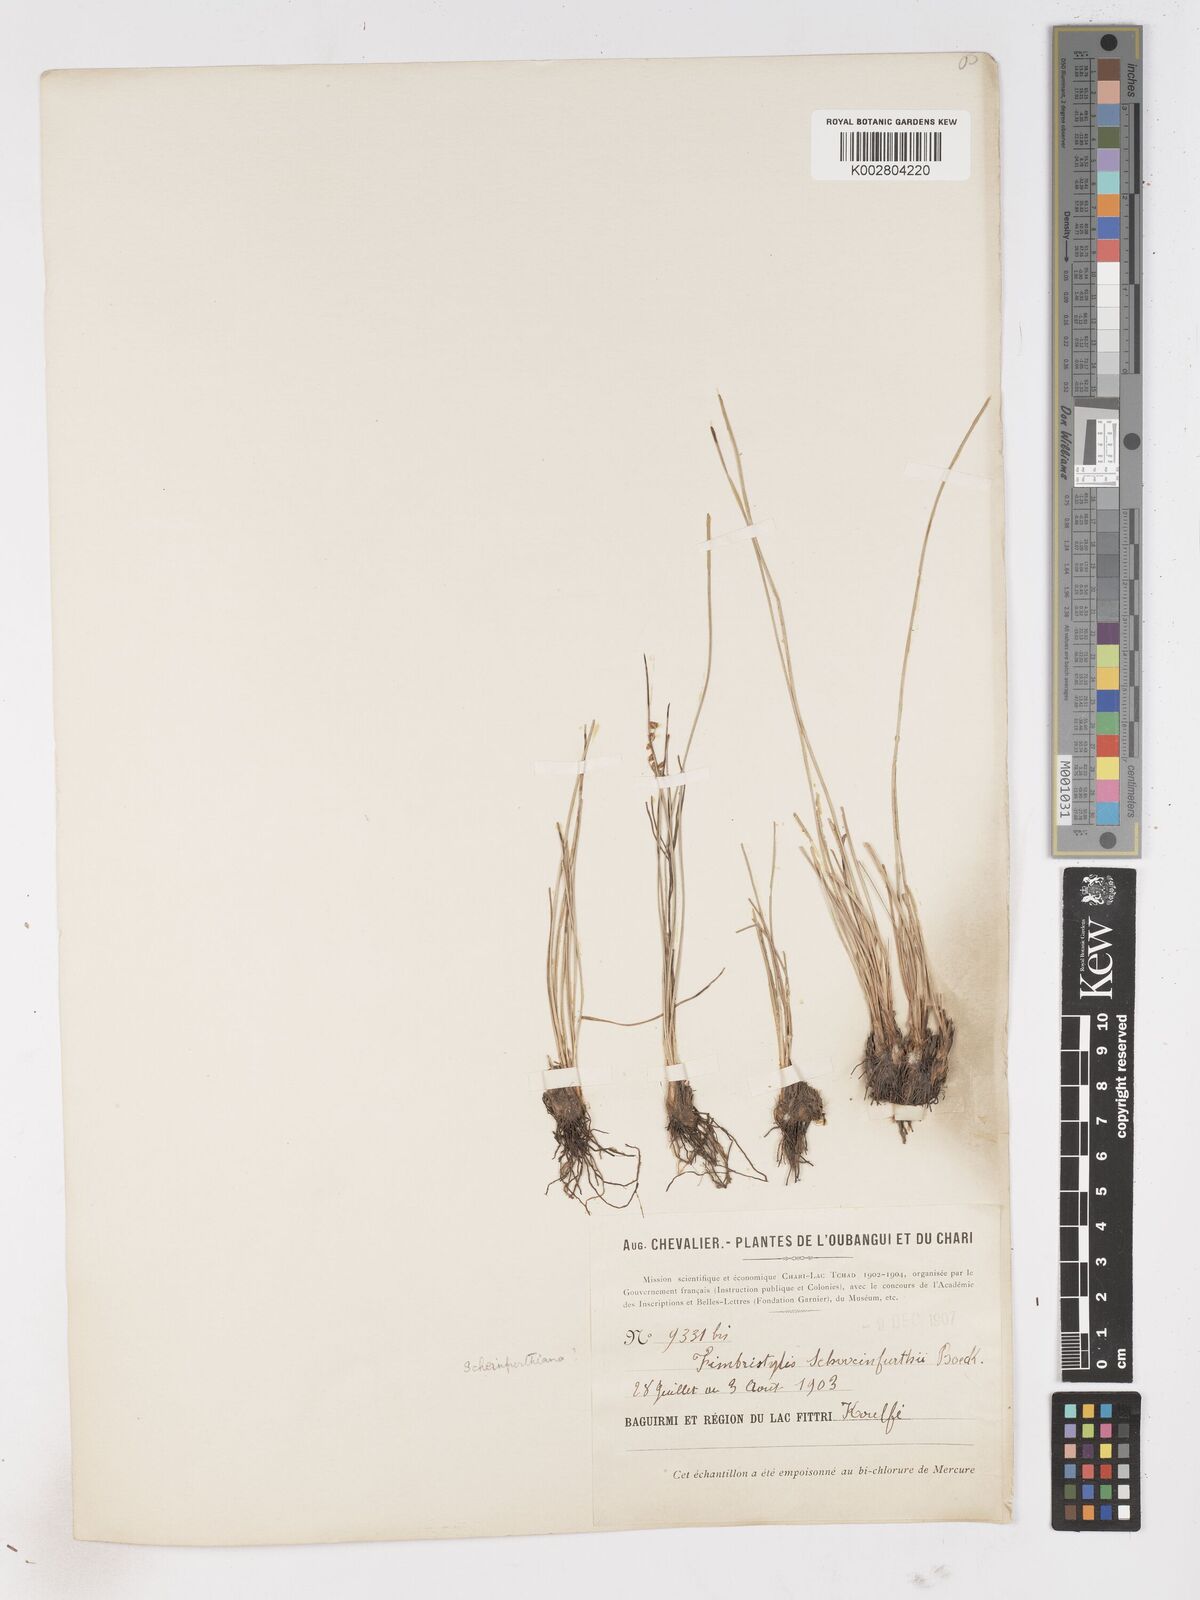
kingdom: Plantae
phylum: Tracheophyta
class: Liliopsida
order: Poales
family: Cyperaceae
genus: Fimbristylis
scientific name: Fimbristylis schweinfurthiana
